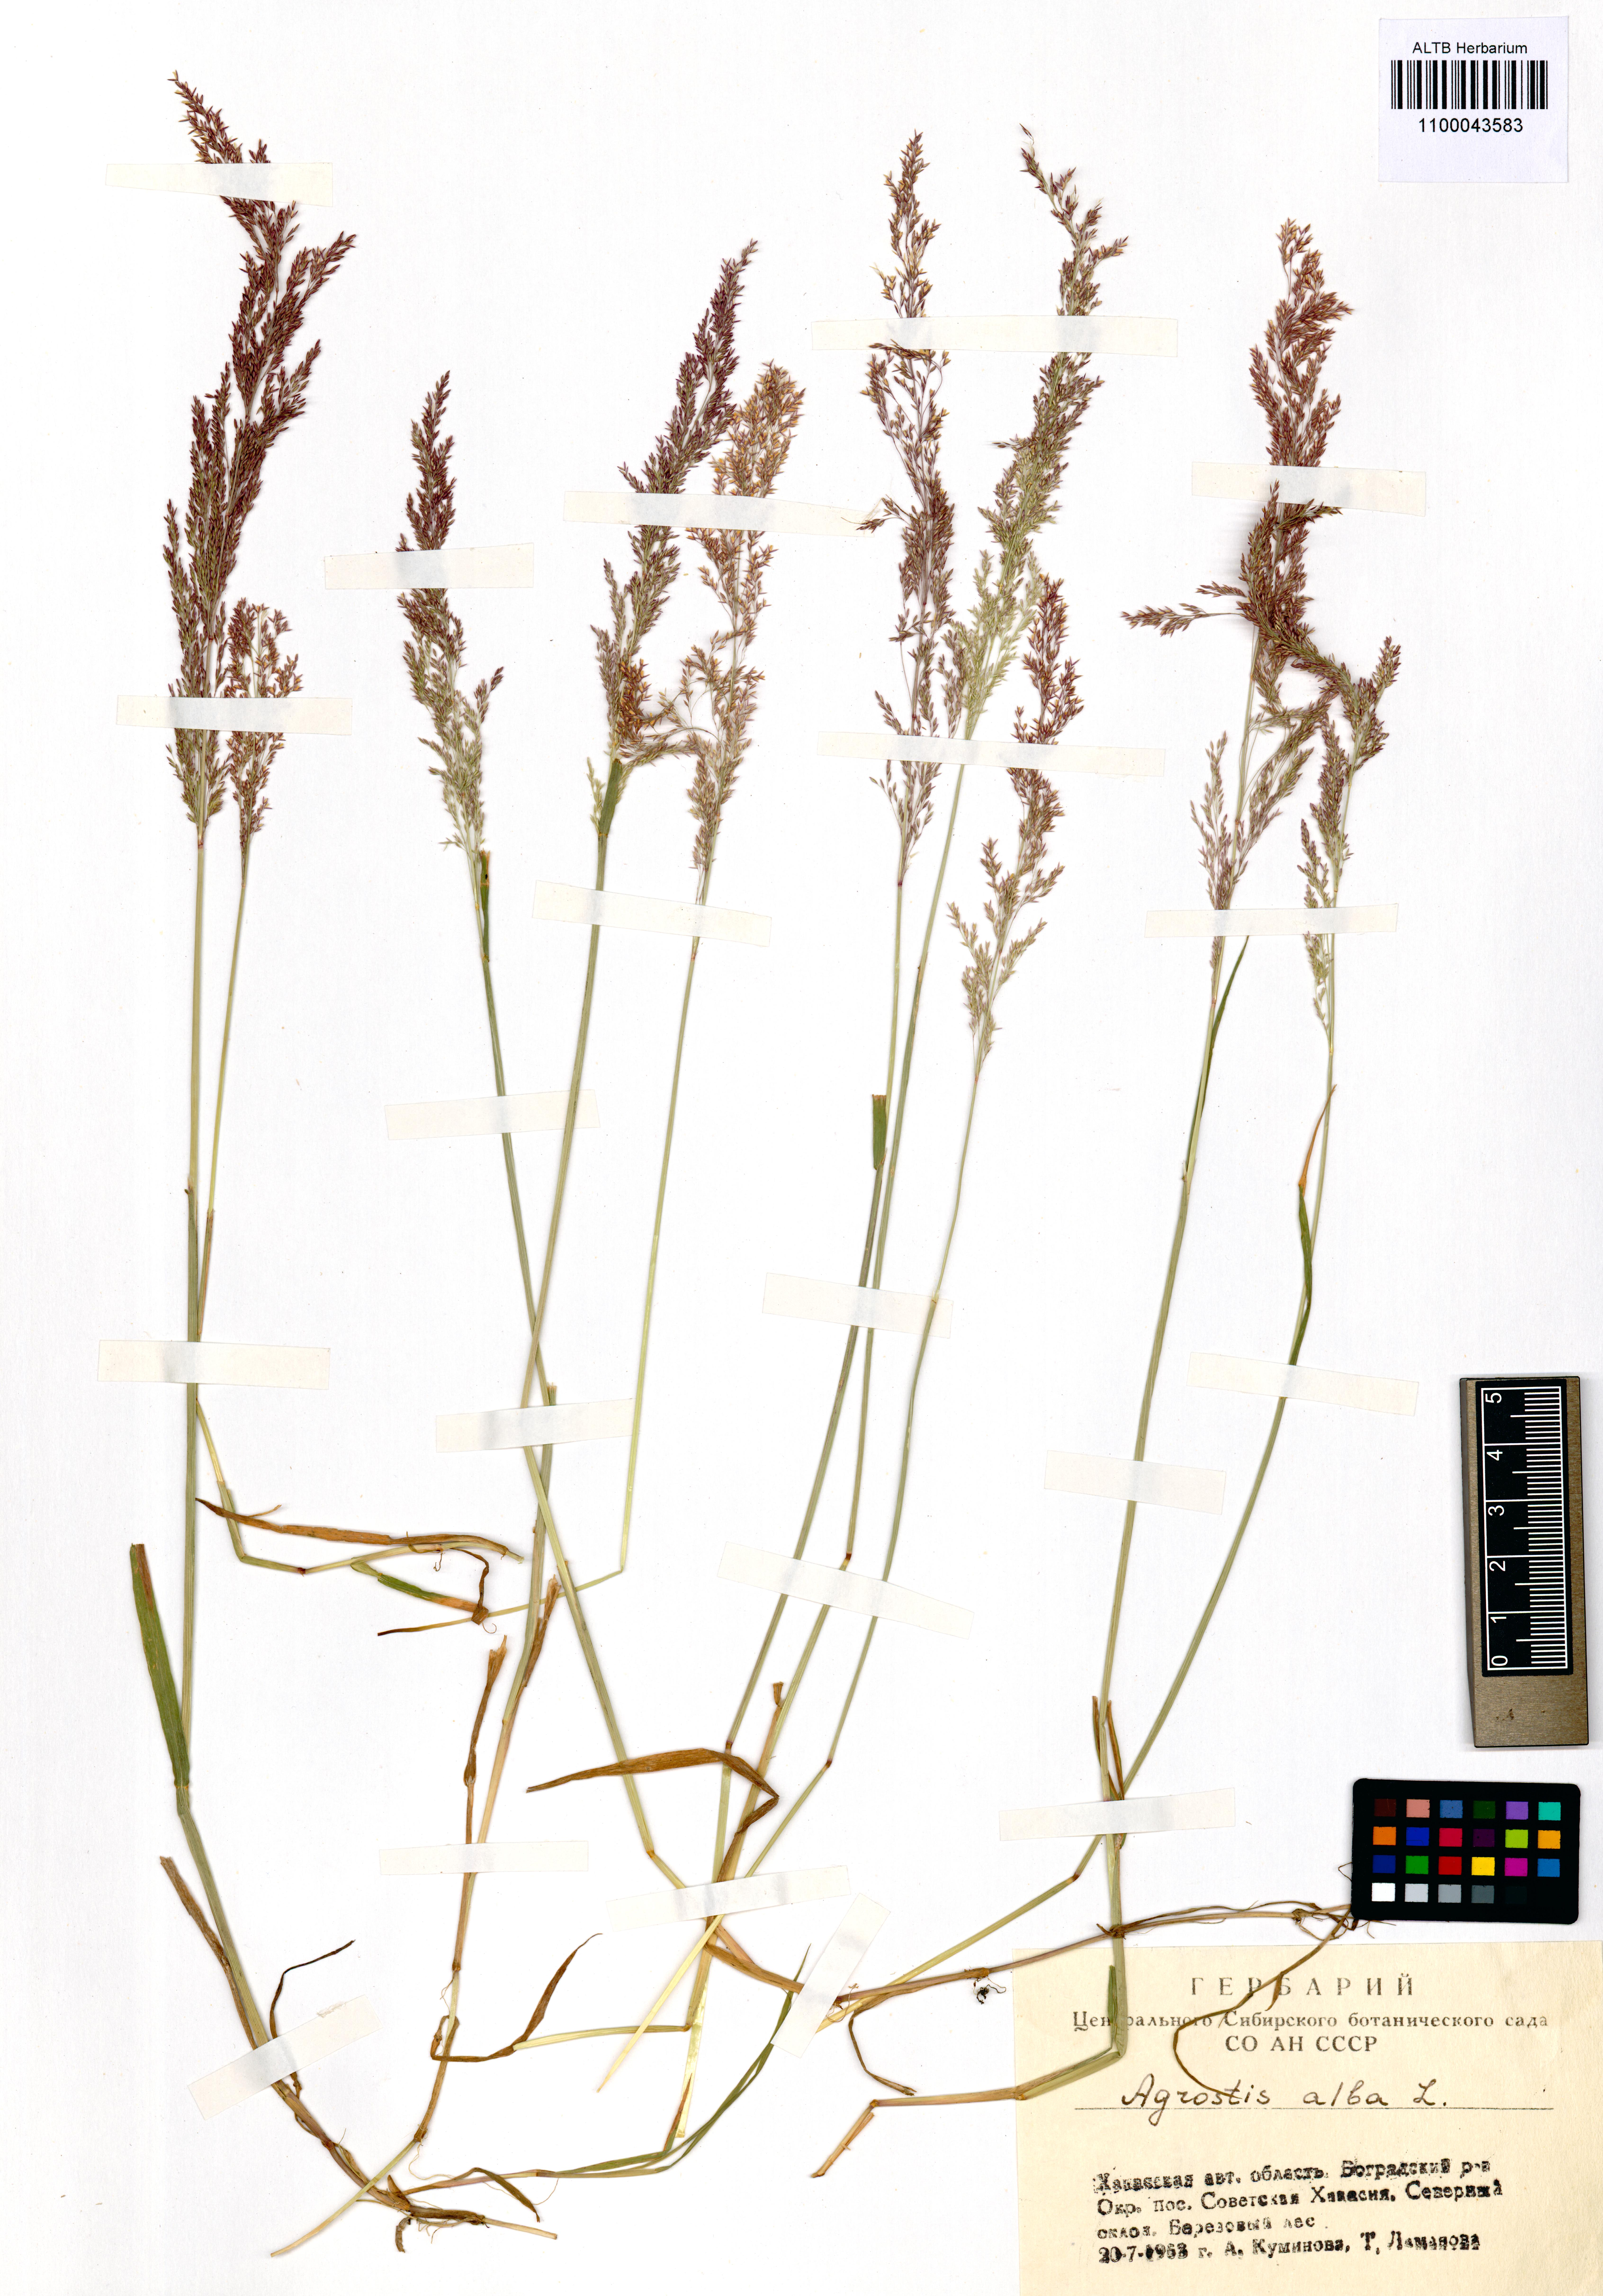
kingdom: Plantae
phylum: Tracheophyta
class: Liliopsida
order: Poales
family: Poaceae
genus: Agrostis
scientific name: Agrostis gigantea
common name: Black bent
